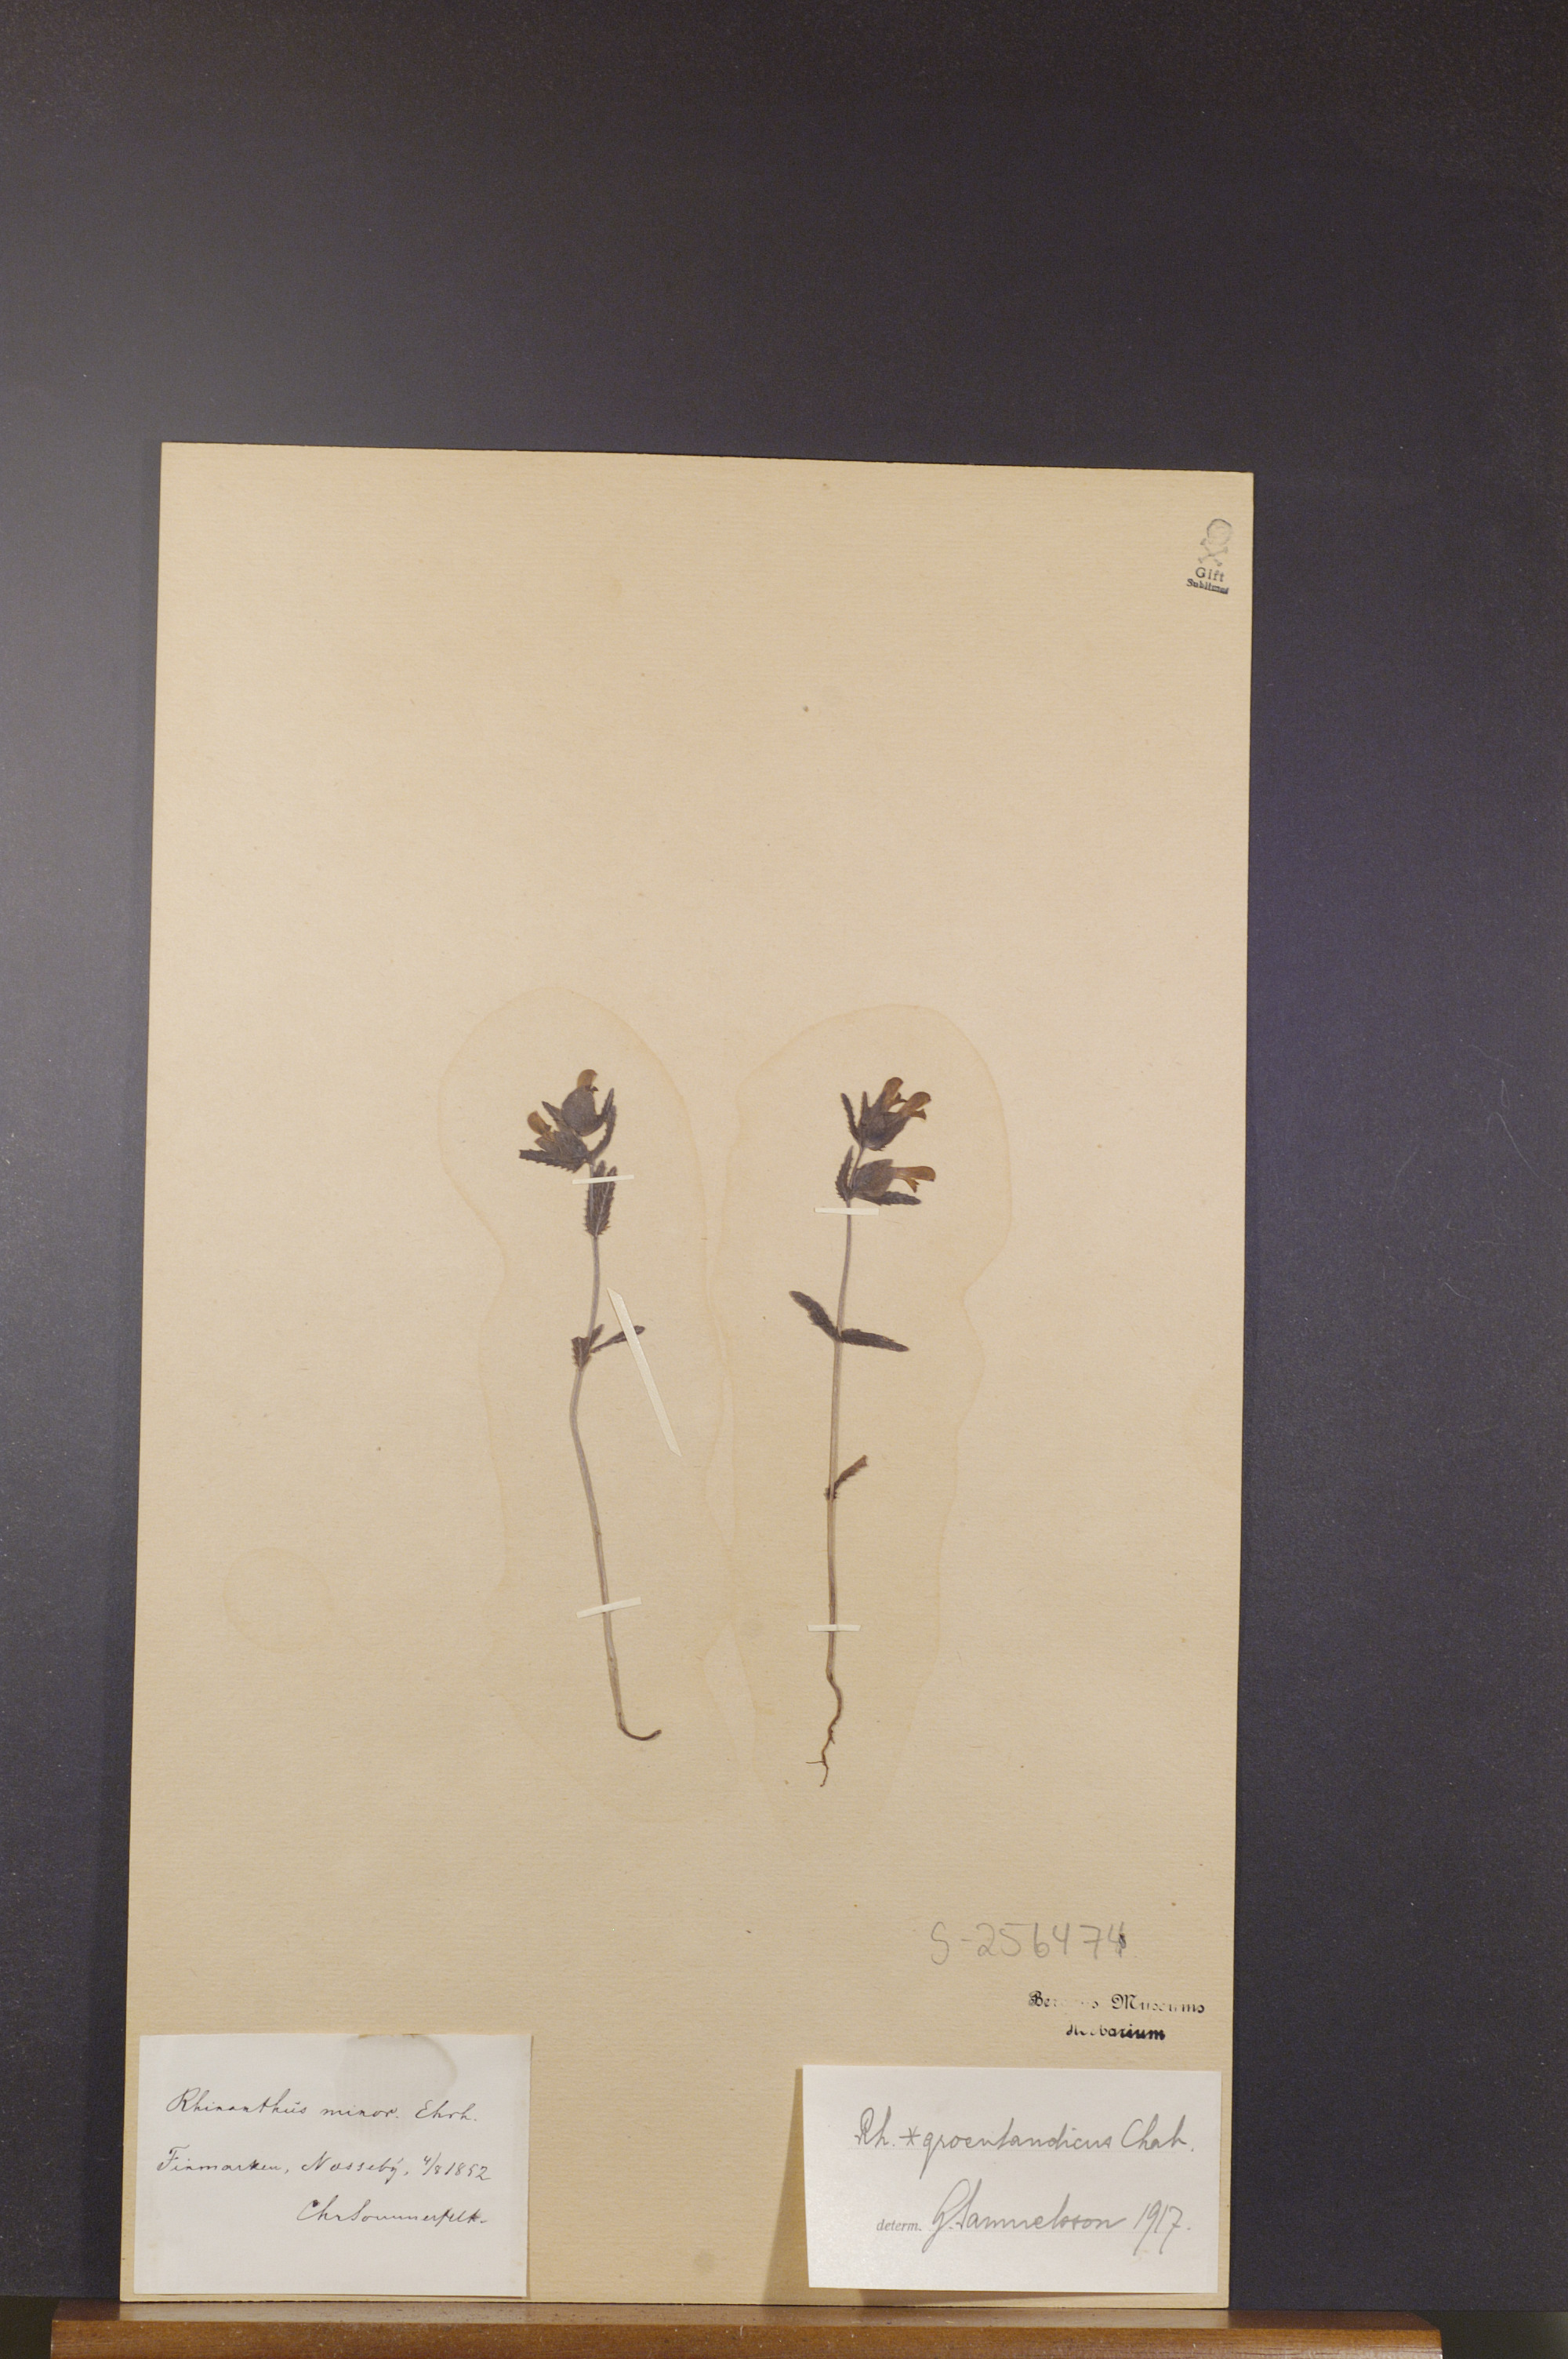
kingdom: Plantae
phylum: Tracheophyta
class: Magnoliopsida
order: Lamiales
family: Orobanchaceae
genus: Rhinanthus
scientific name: Rhinanthus groenlandicus
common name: Little yellow rattle
